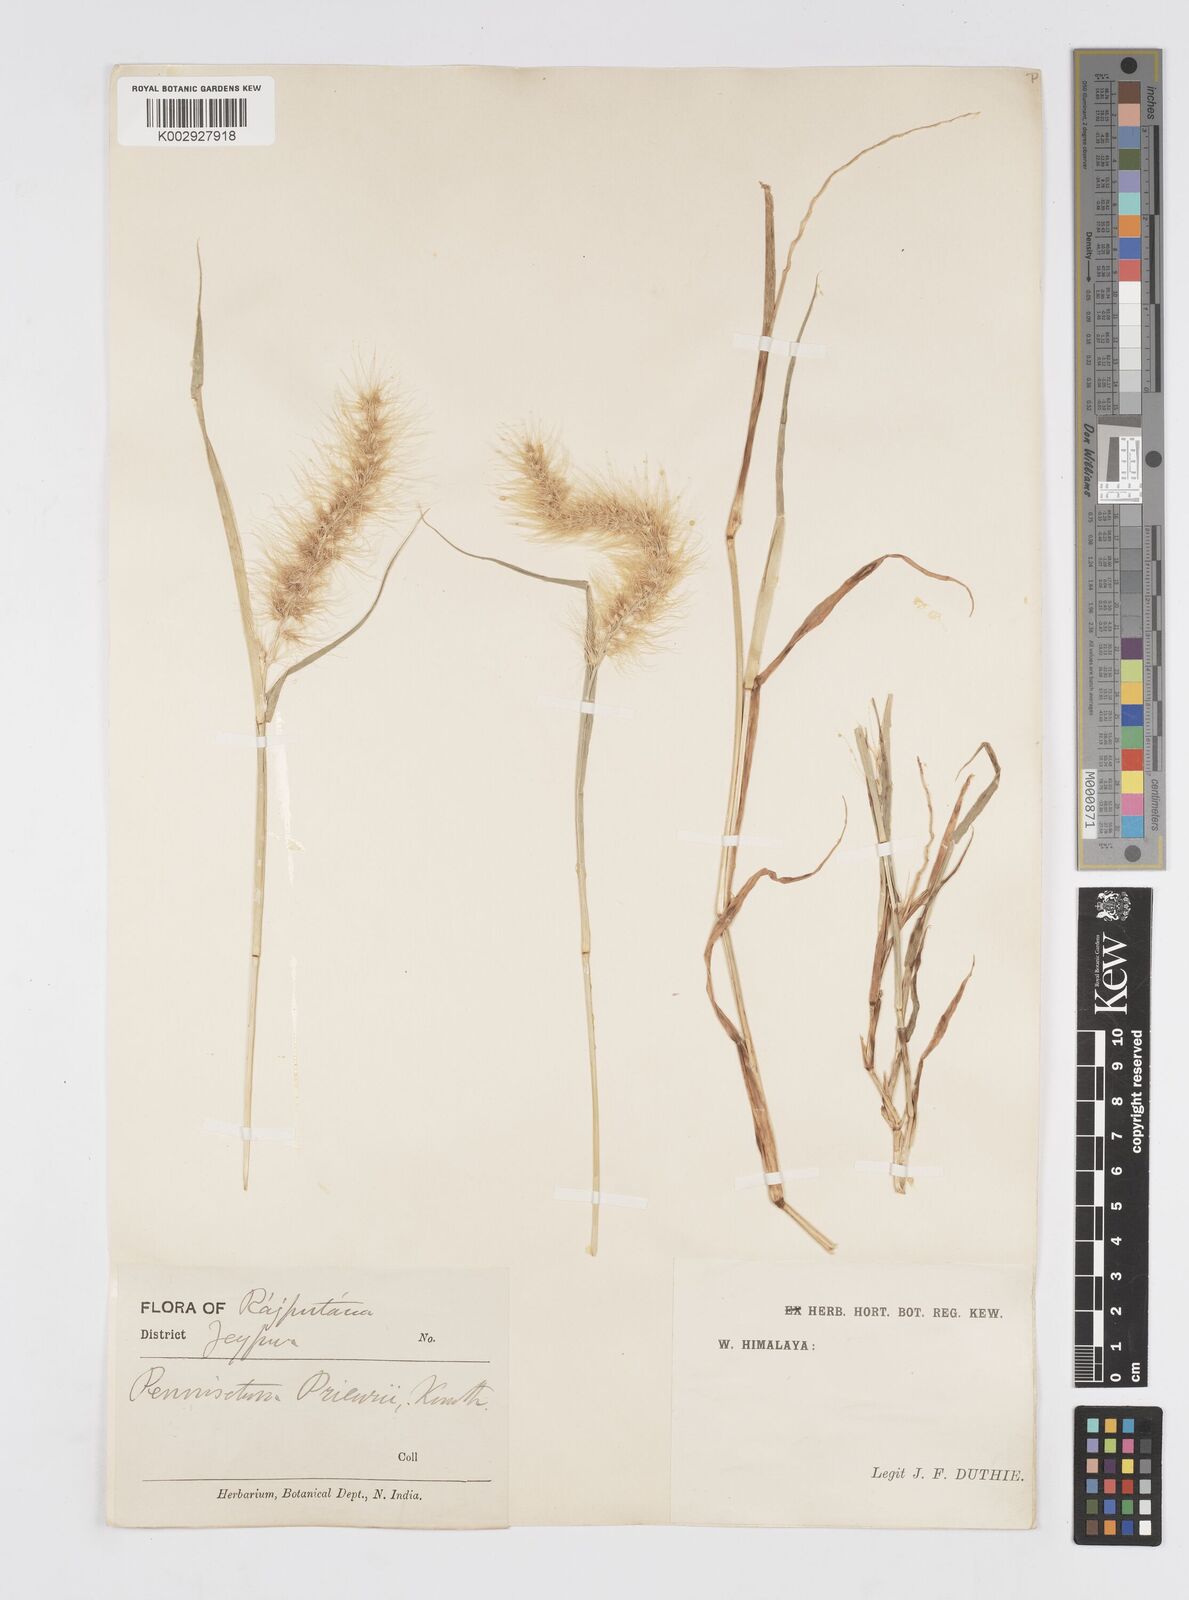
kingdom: Plantae
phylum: Tracheophyta
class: Liliopsida
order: Poales
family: Poaceae
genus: Cenchrus
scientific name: Cenchrus prieurii
